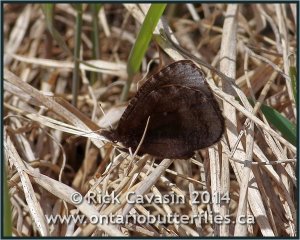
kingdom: Animalia
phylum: Arthropoda
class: Insecta
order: Lepidoptera
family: Nymphalidae
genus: Erebia
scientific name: Erebia discoidalis
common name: Red-disked Alpine
